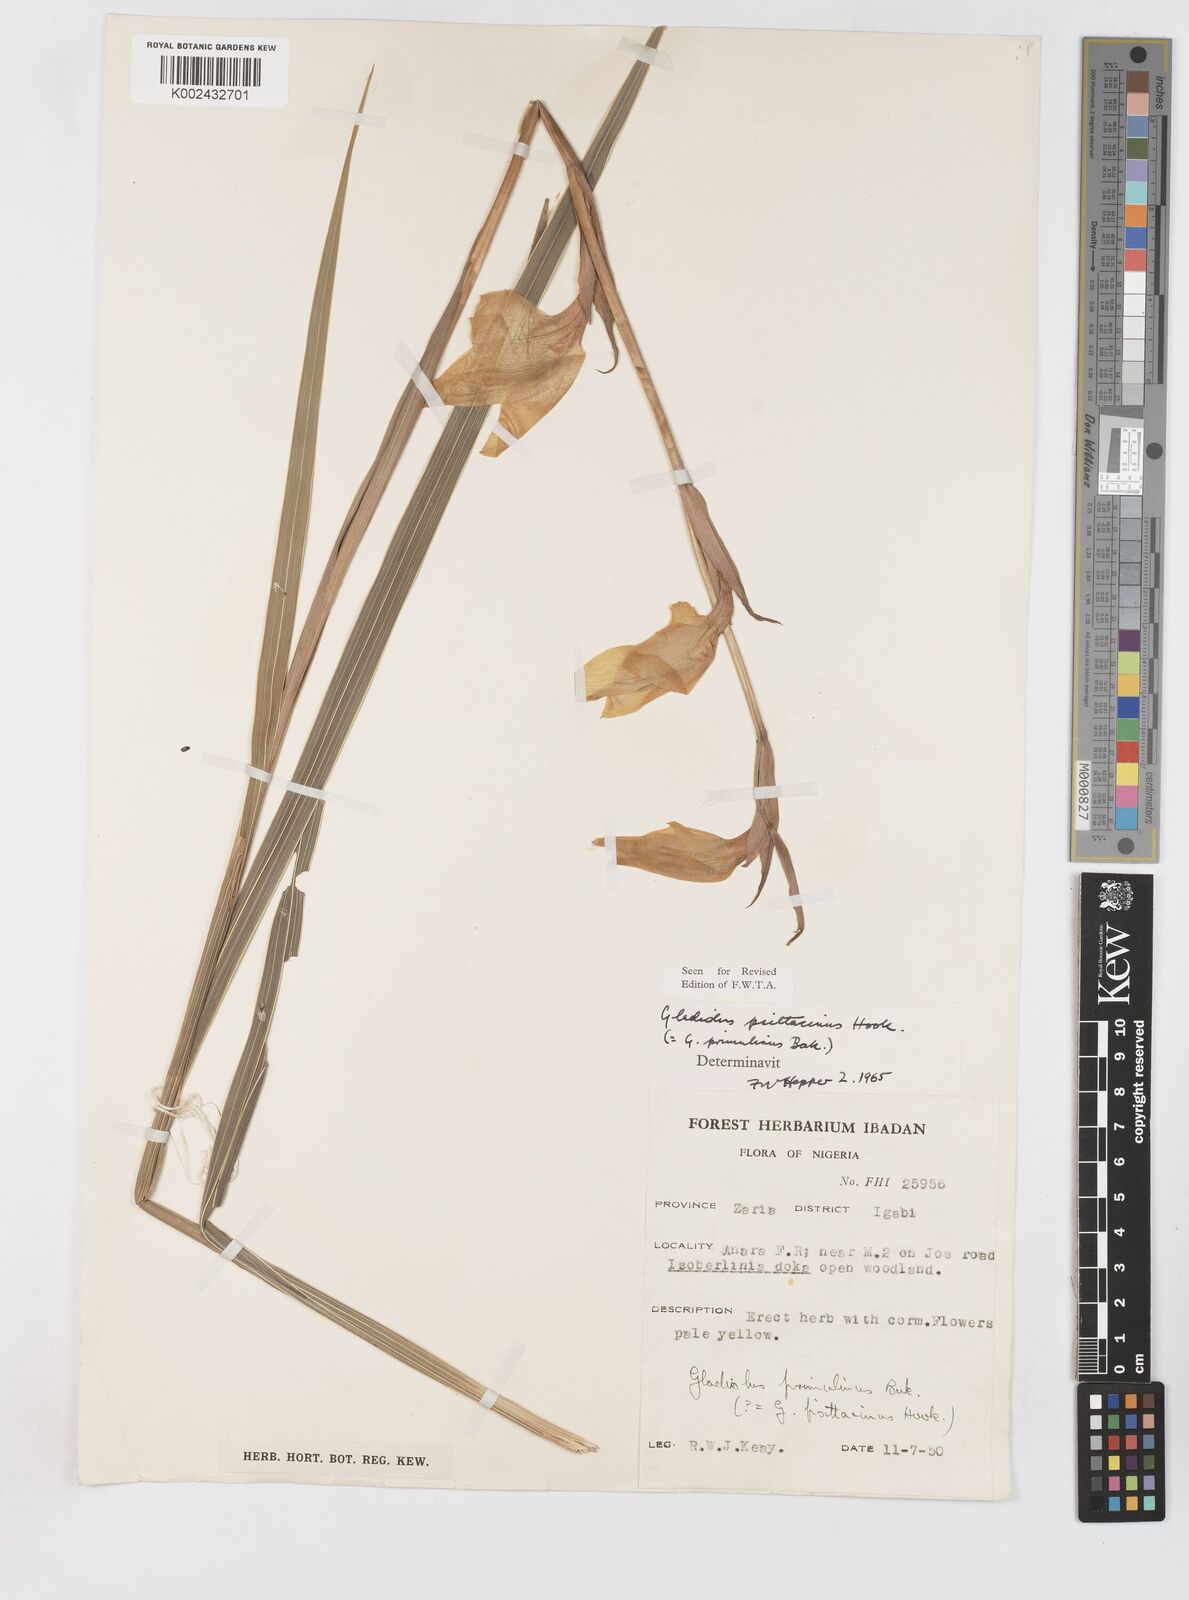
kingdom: Plantae
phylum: Tracheophyta
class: Liliopsida
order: Asparagales
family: Iridaceae
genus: Gladiolus
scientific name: Gladiolus dalenii
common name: Cornflag
